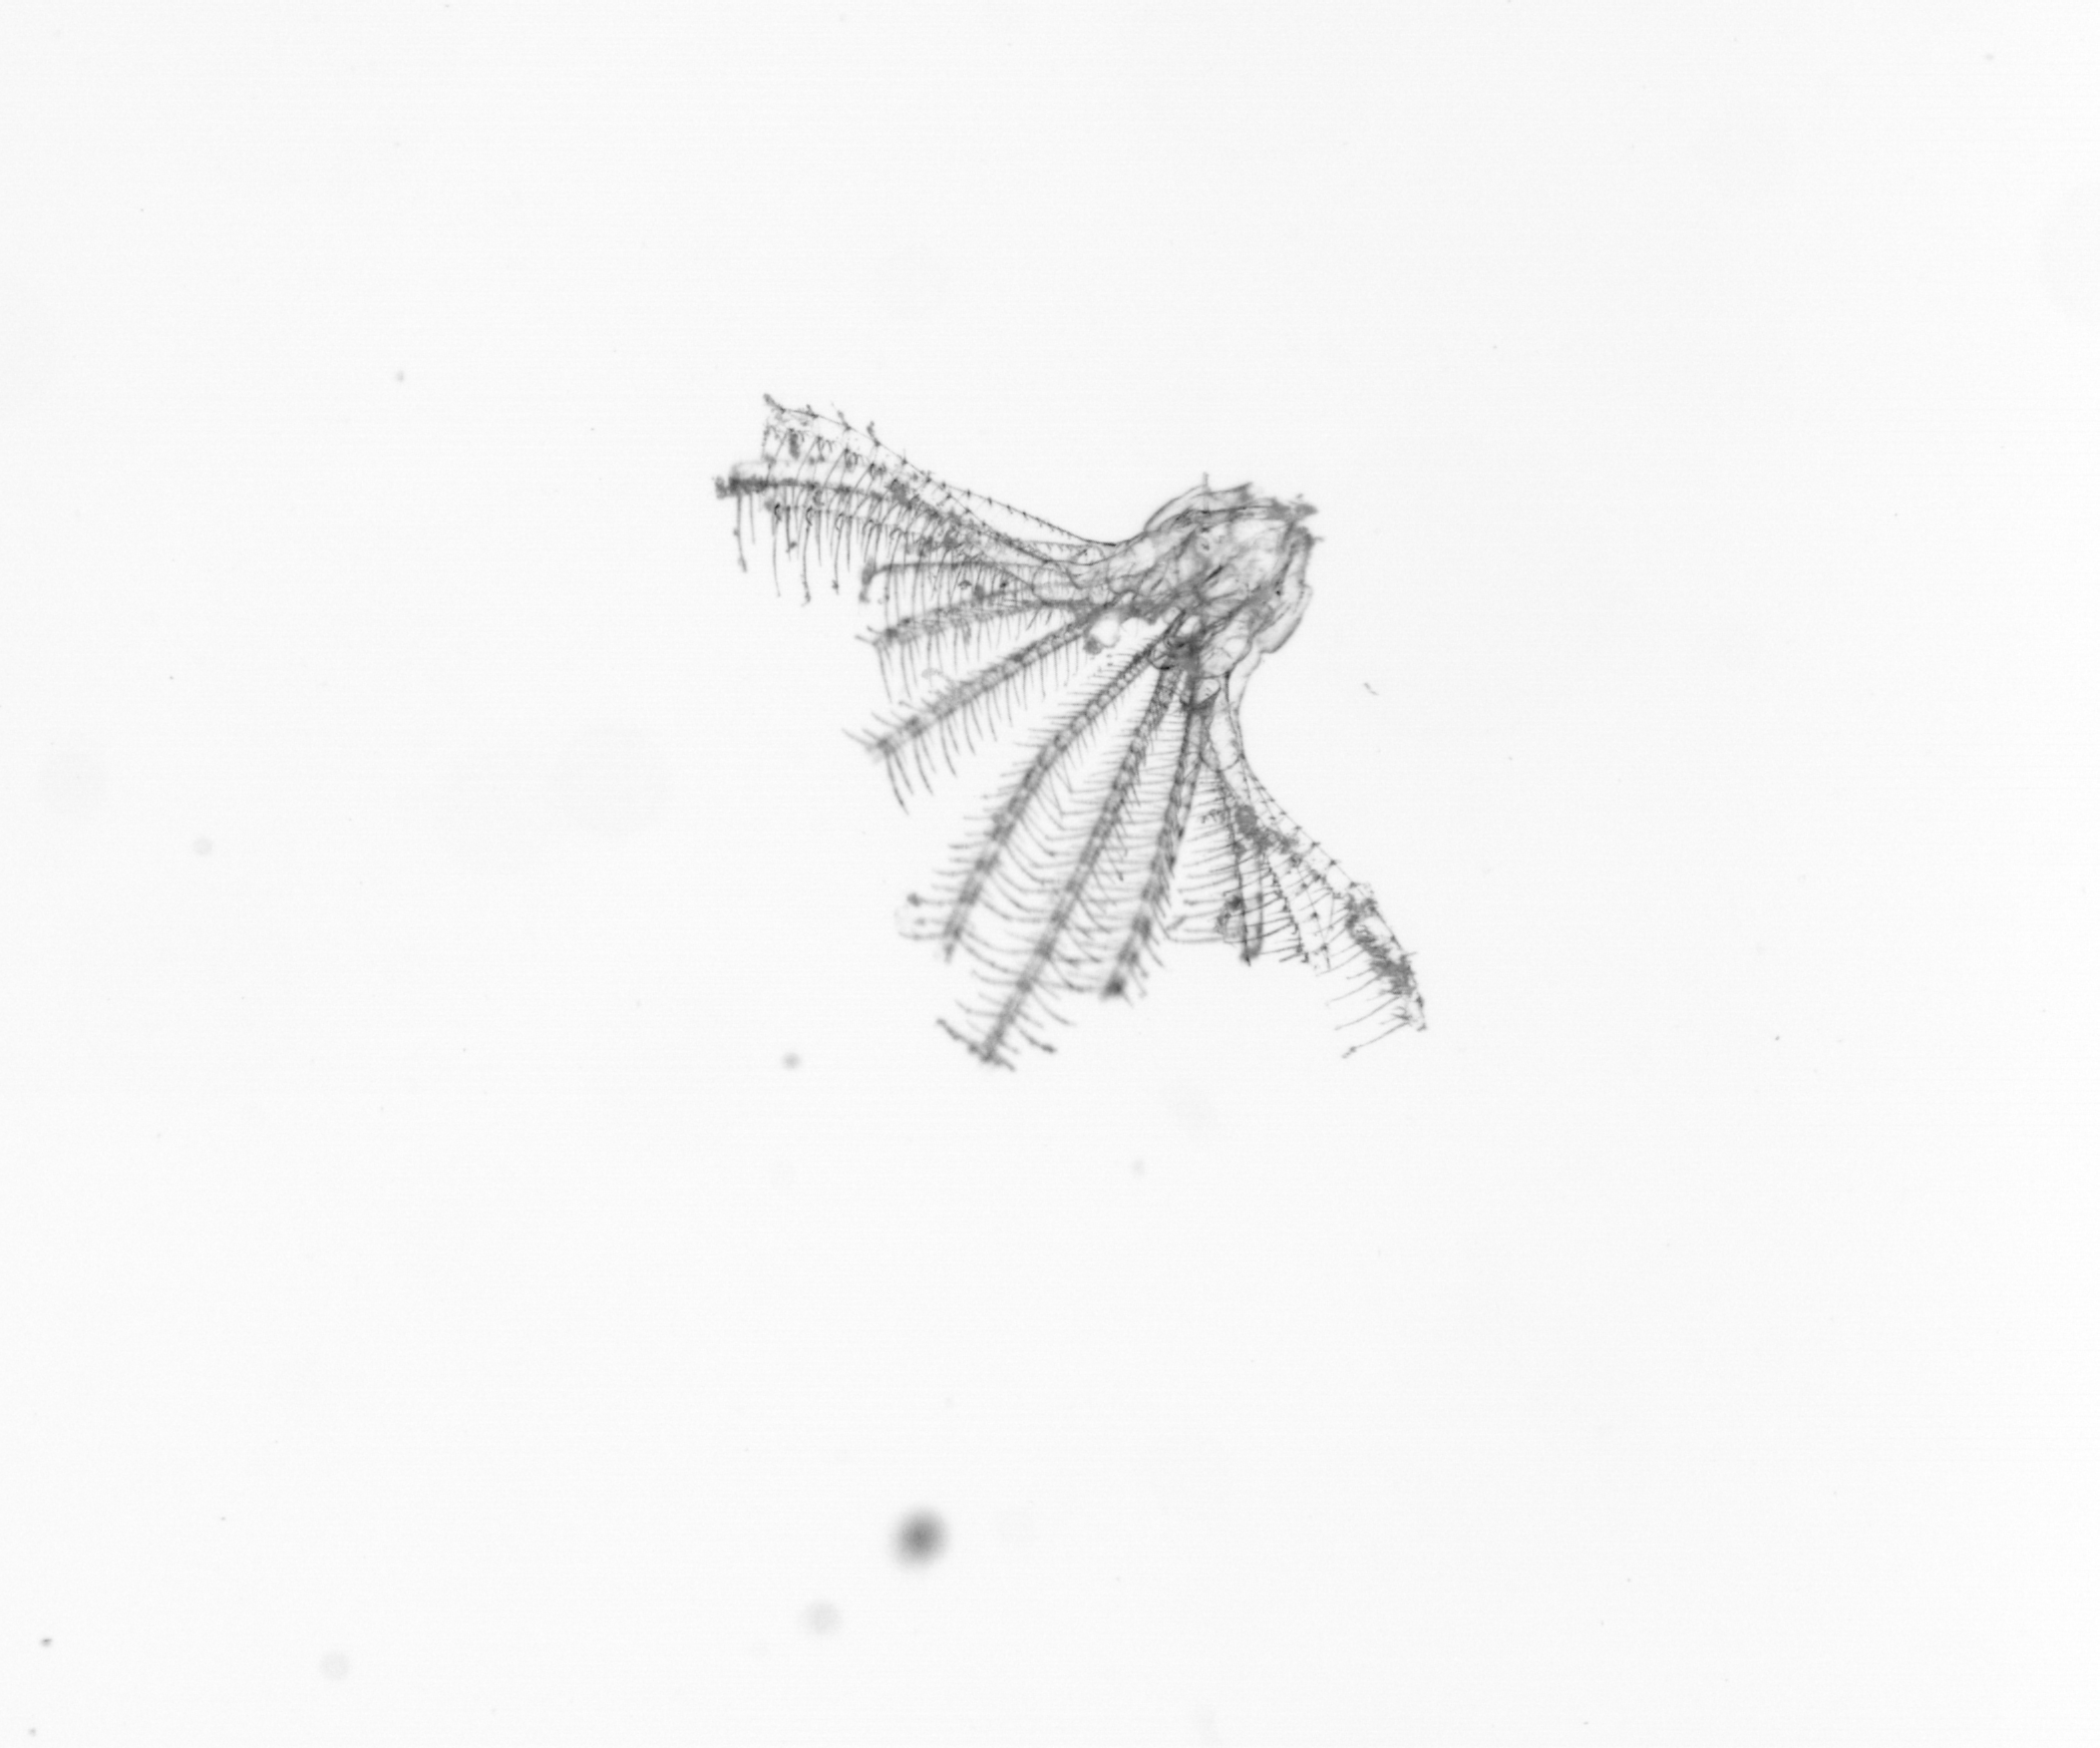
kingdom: Animalia
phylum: Arthropoda
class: Maxillopoda
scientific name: Maxillopoda
